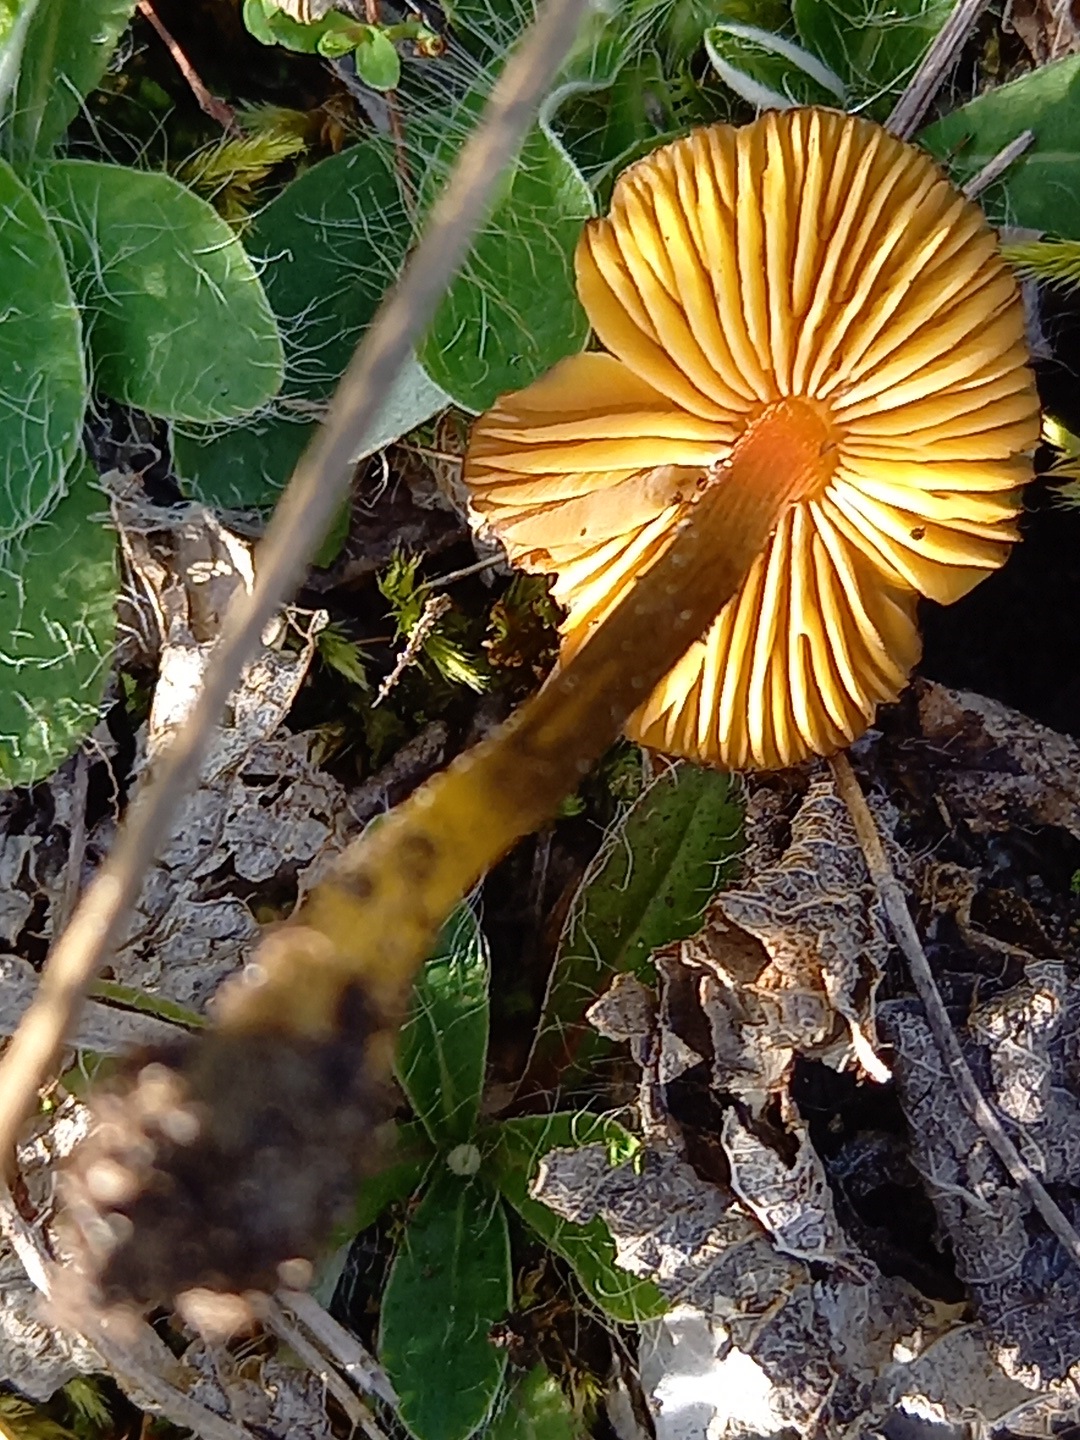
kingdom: Fungi
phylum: Basidiomycota
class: Agaricomycetes
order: Agaricales
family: Hygrophoraceae
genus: Hygrocybe
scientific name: Hygrocybe conica
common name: kegle-vokshat
